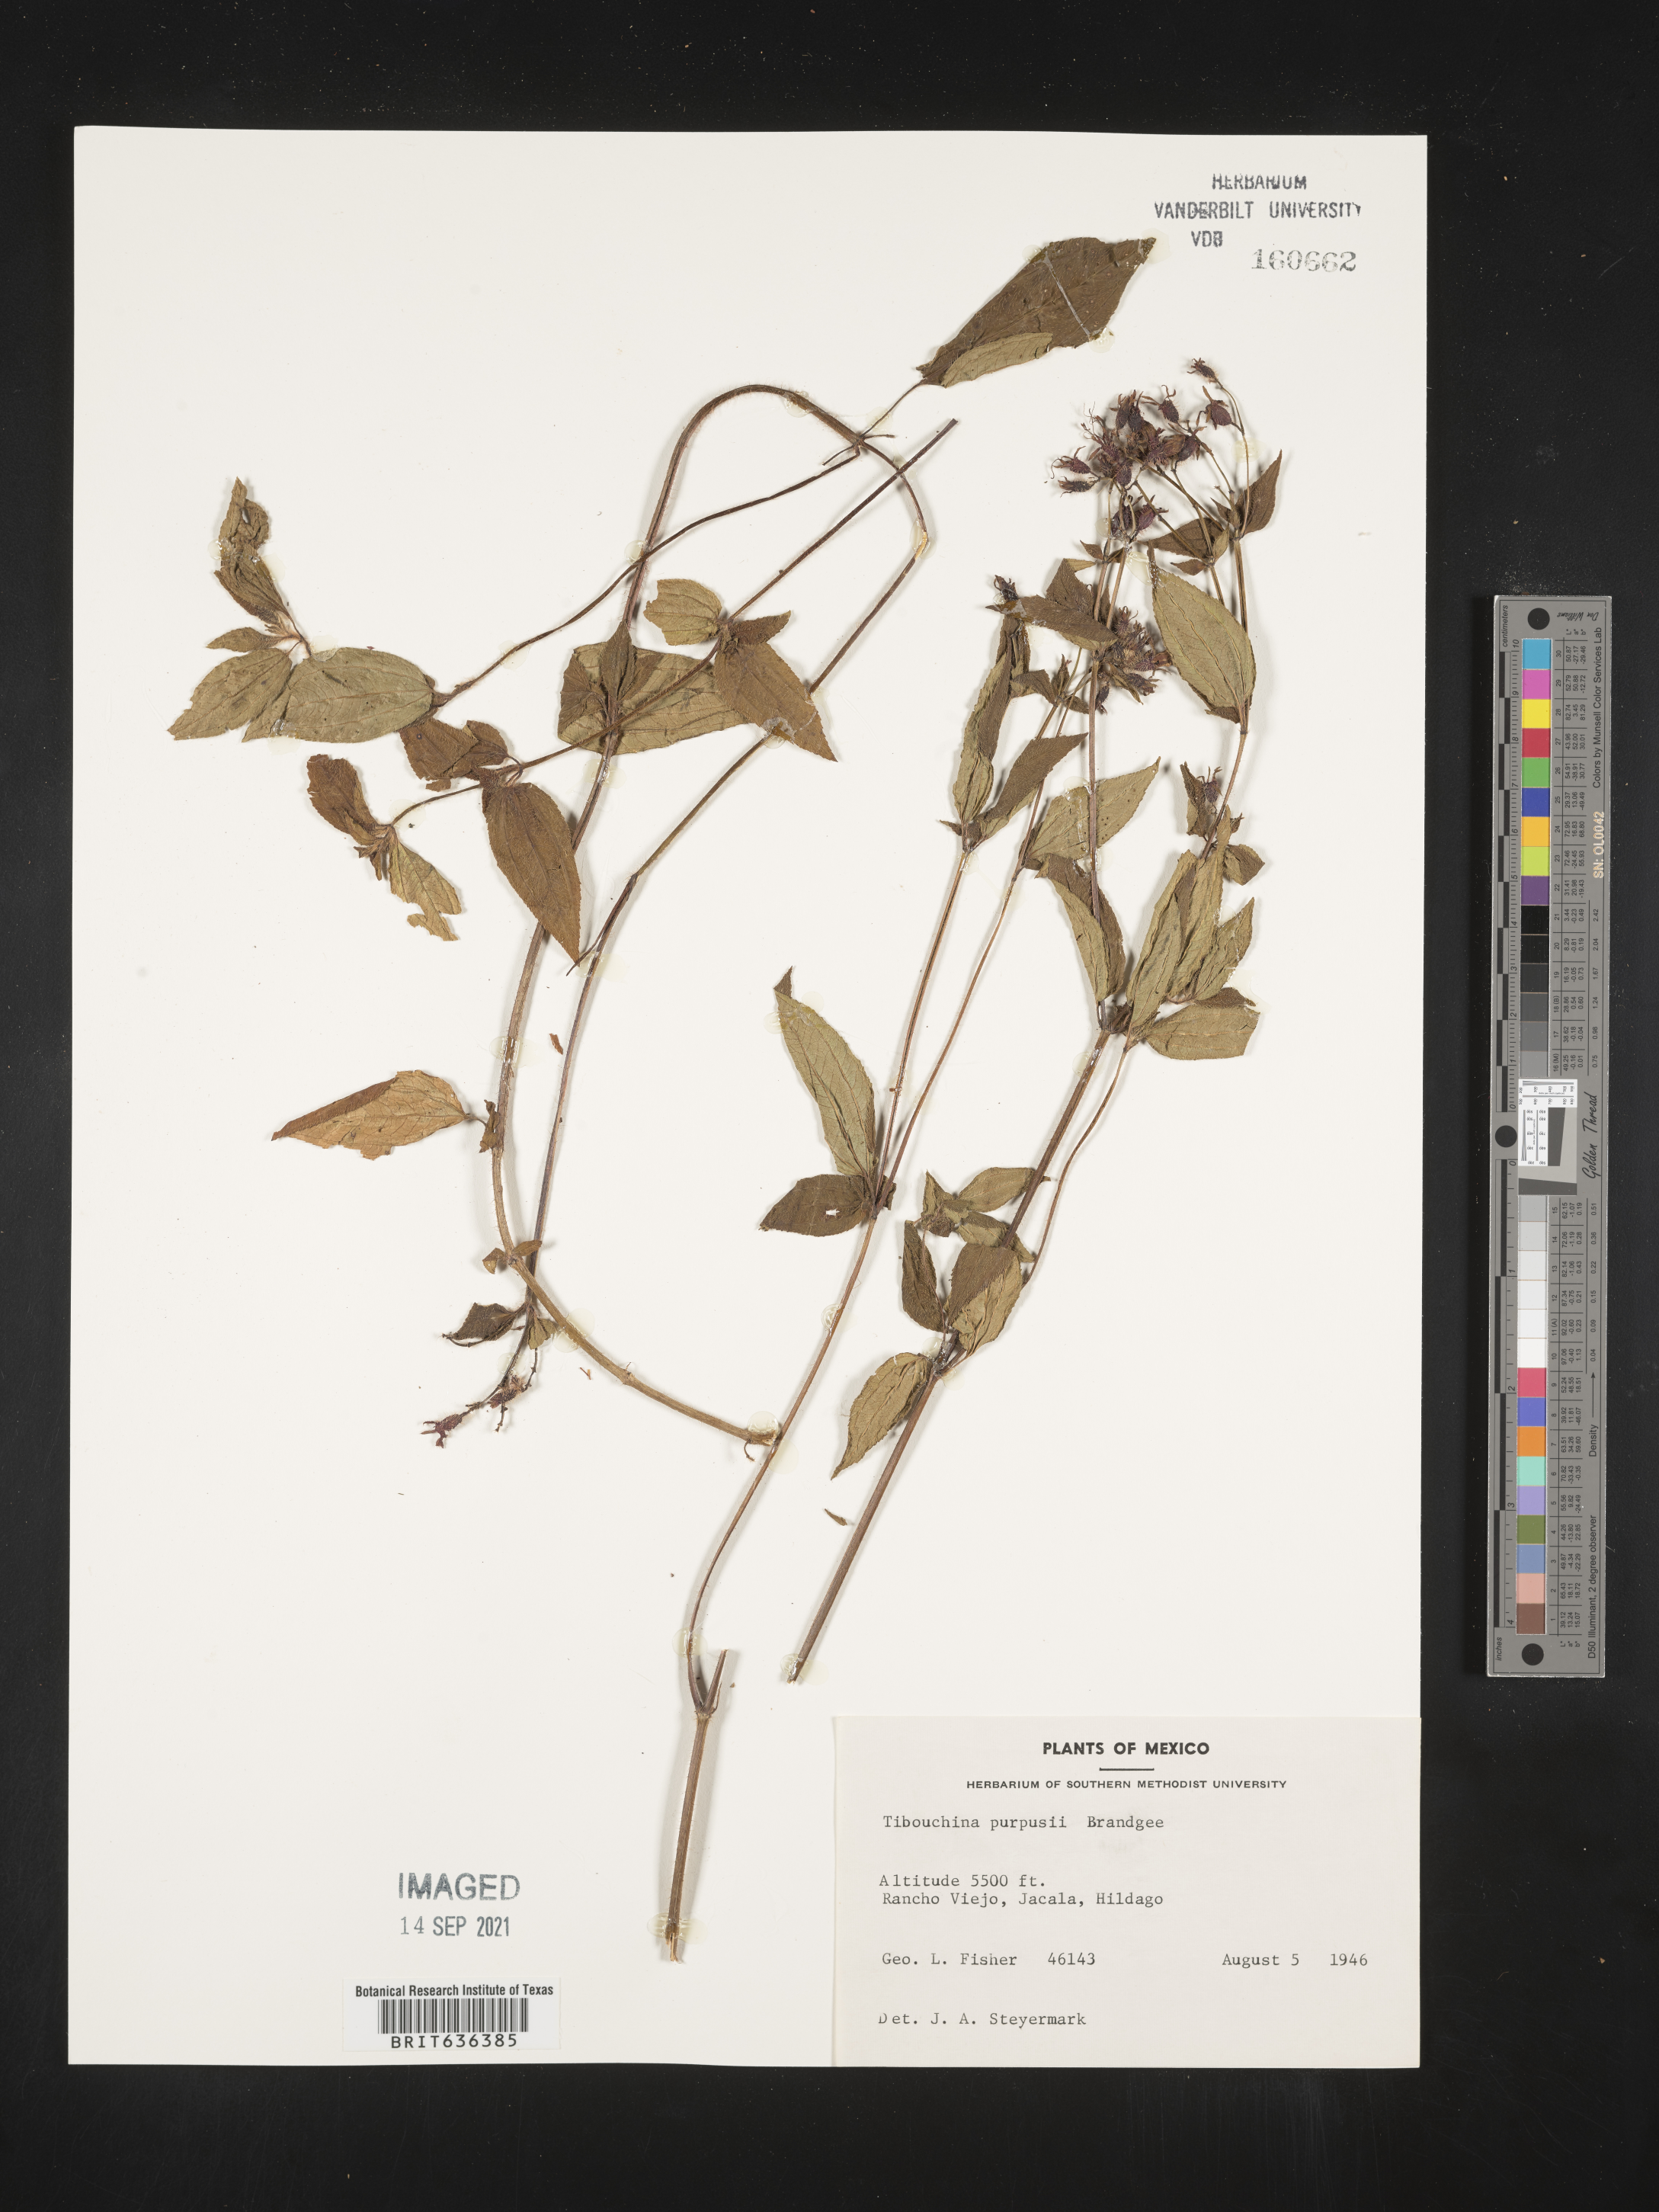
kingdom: Plantae
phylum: Tracheophyta
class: Magnoliopsida
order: Myrtales
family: Melastomataceae
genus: Tibouchina
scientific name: Tibouchina
